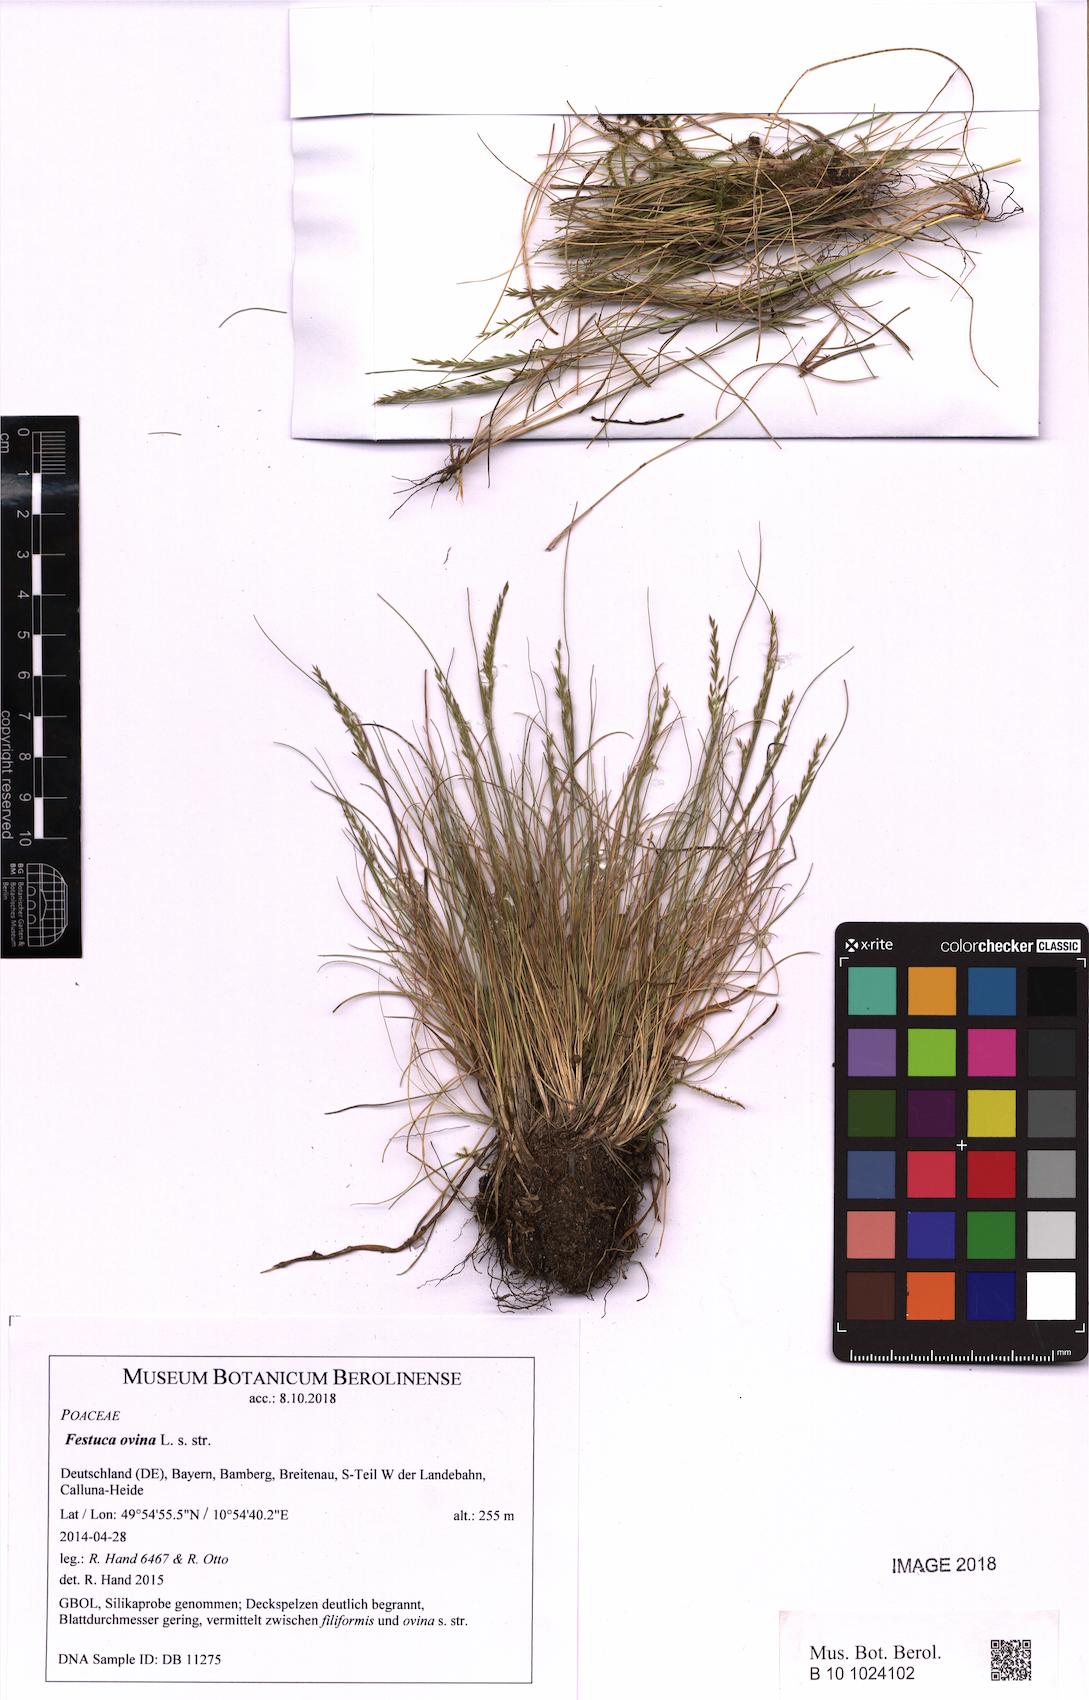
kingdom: Plantae
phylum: Tracheophyta
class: Liliopsida
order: Poales
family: Poaceae
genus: Festuca
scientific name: Festuca ovina
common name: Sheep fescue
